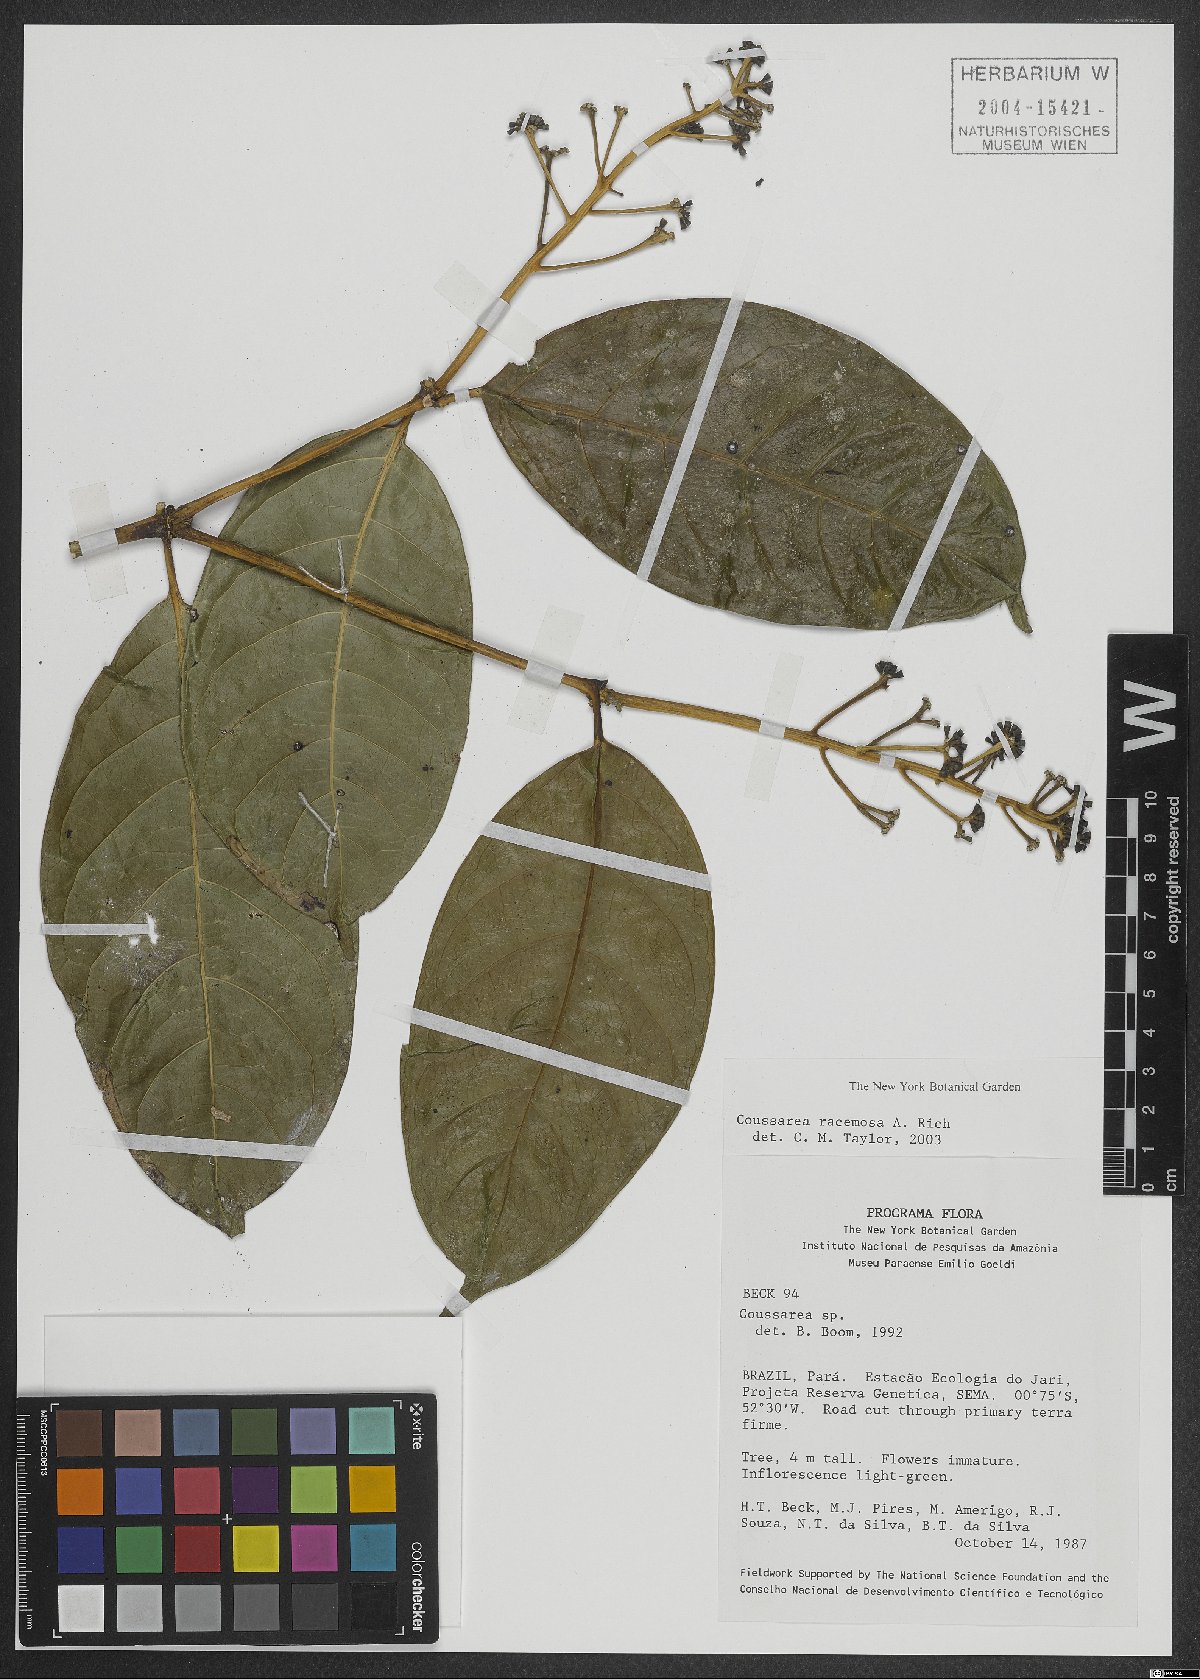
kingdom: Plantae
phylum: Tracheophyta
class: Magnoliopsida
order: Gentianales
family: Rubiaceae
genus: Coussarea
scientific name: Coussarea albescens
